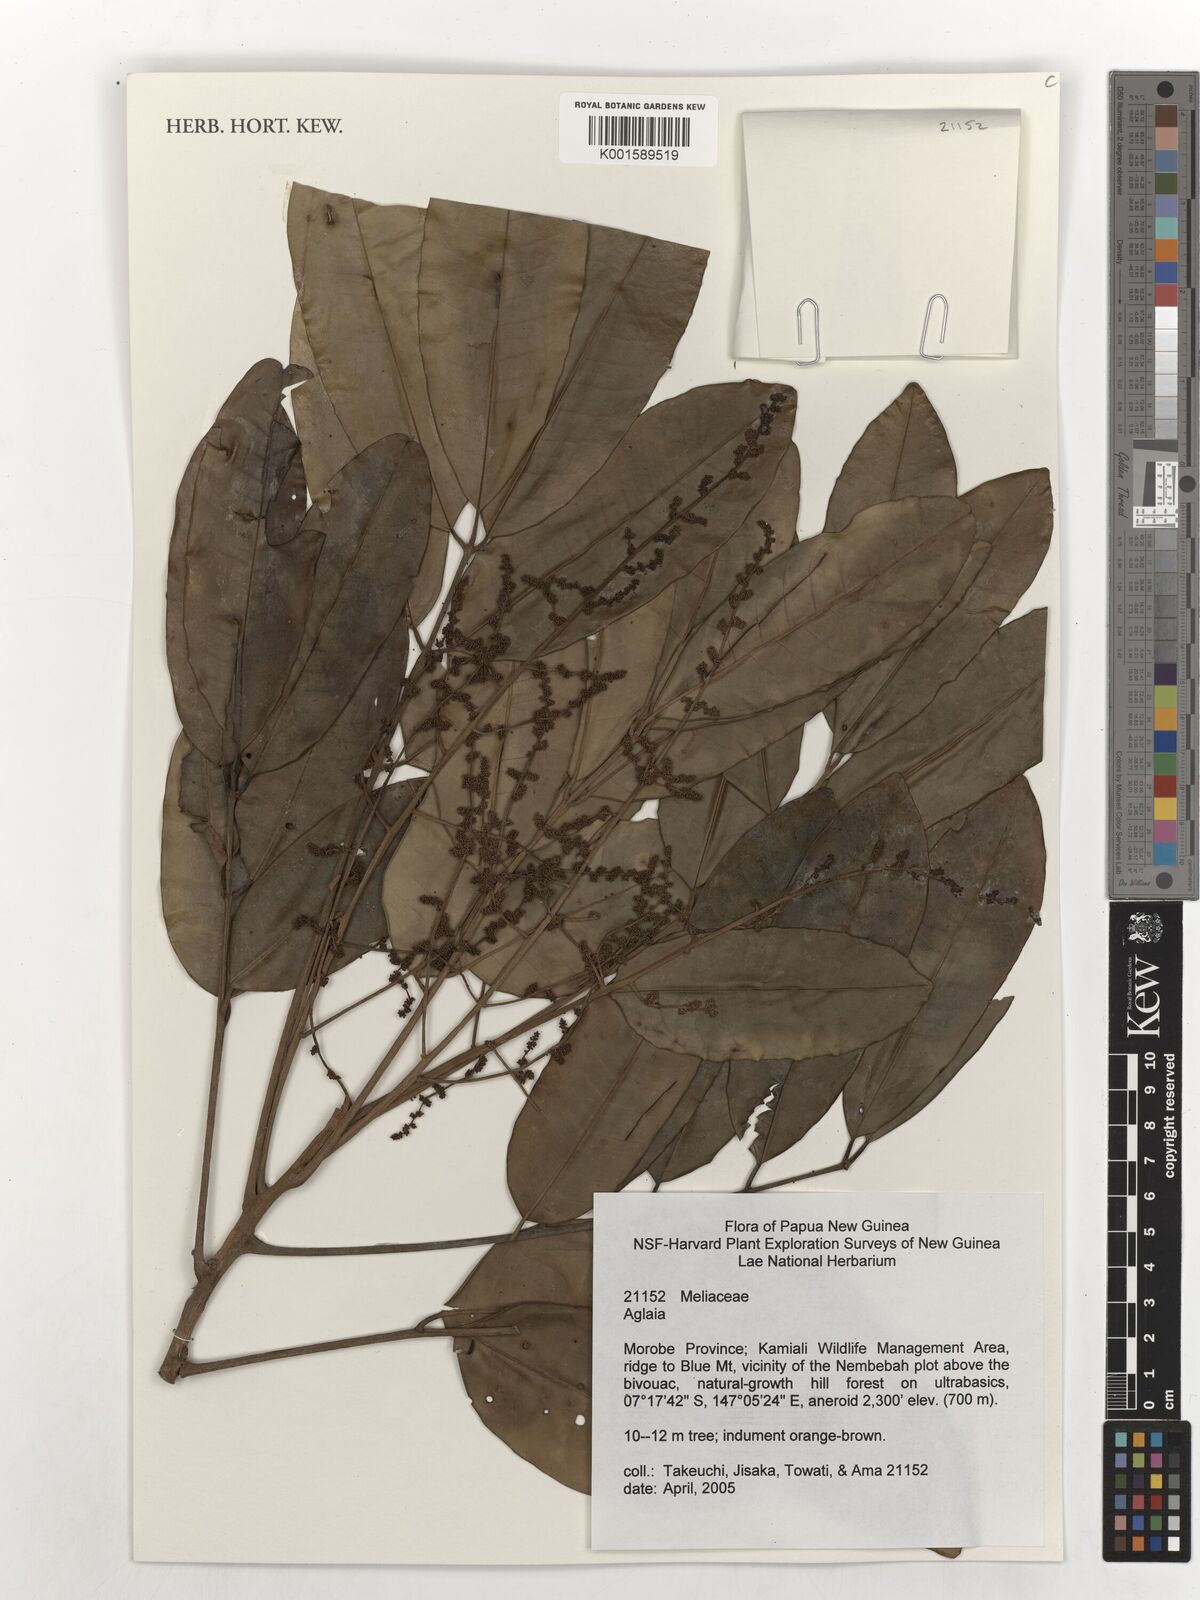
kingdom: Plantae
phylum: Tracheophyta
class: Magnoliopsida
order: Sapindales
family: Meliaceae
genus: Aglaia
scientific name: Aglaia
